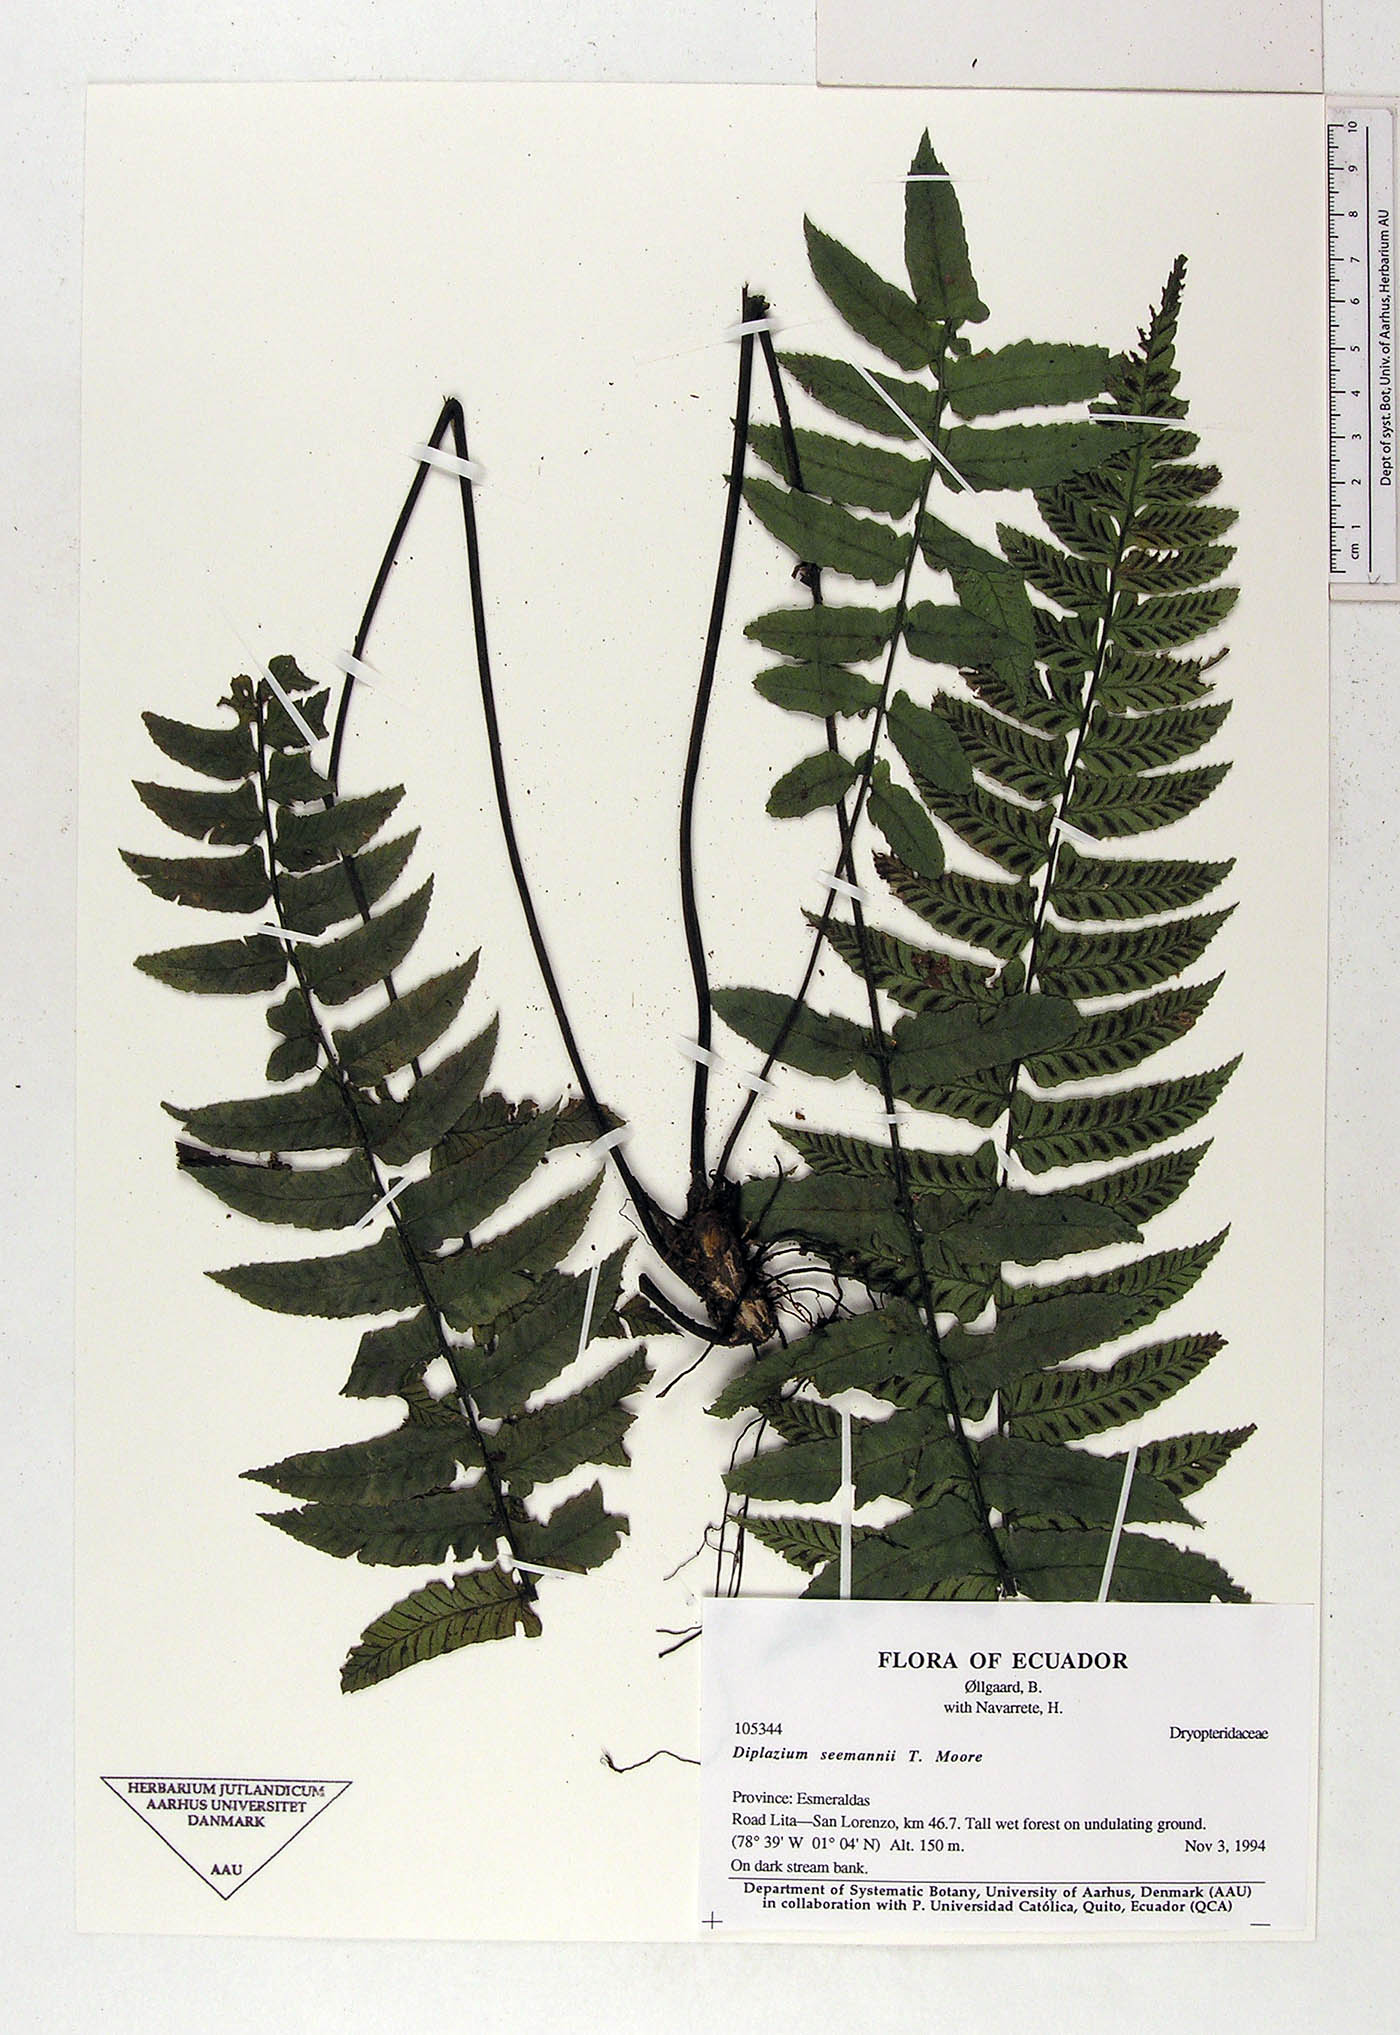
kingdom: Plantae
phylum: Tracheophyta
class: Polypodiopsida
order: Polypodiales
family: Athyriaceae
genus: Diplazium
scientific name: Diplazium seemannii
